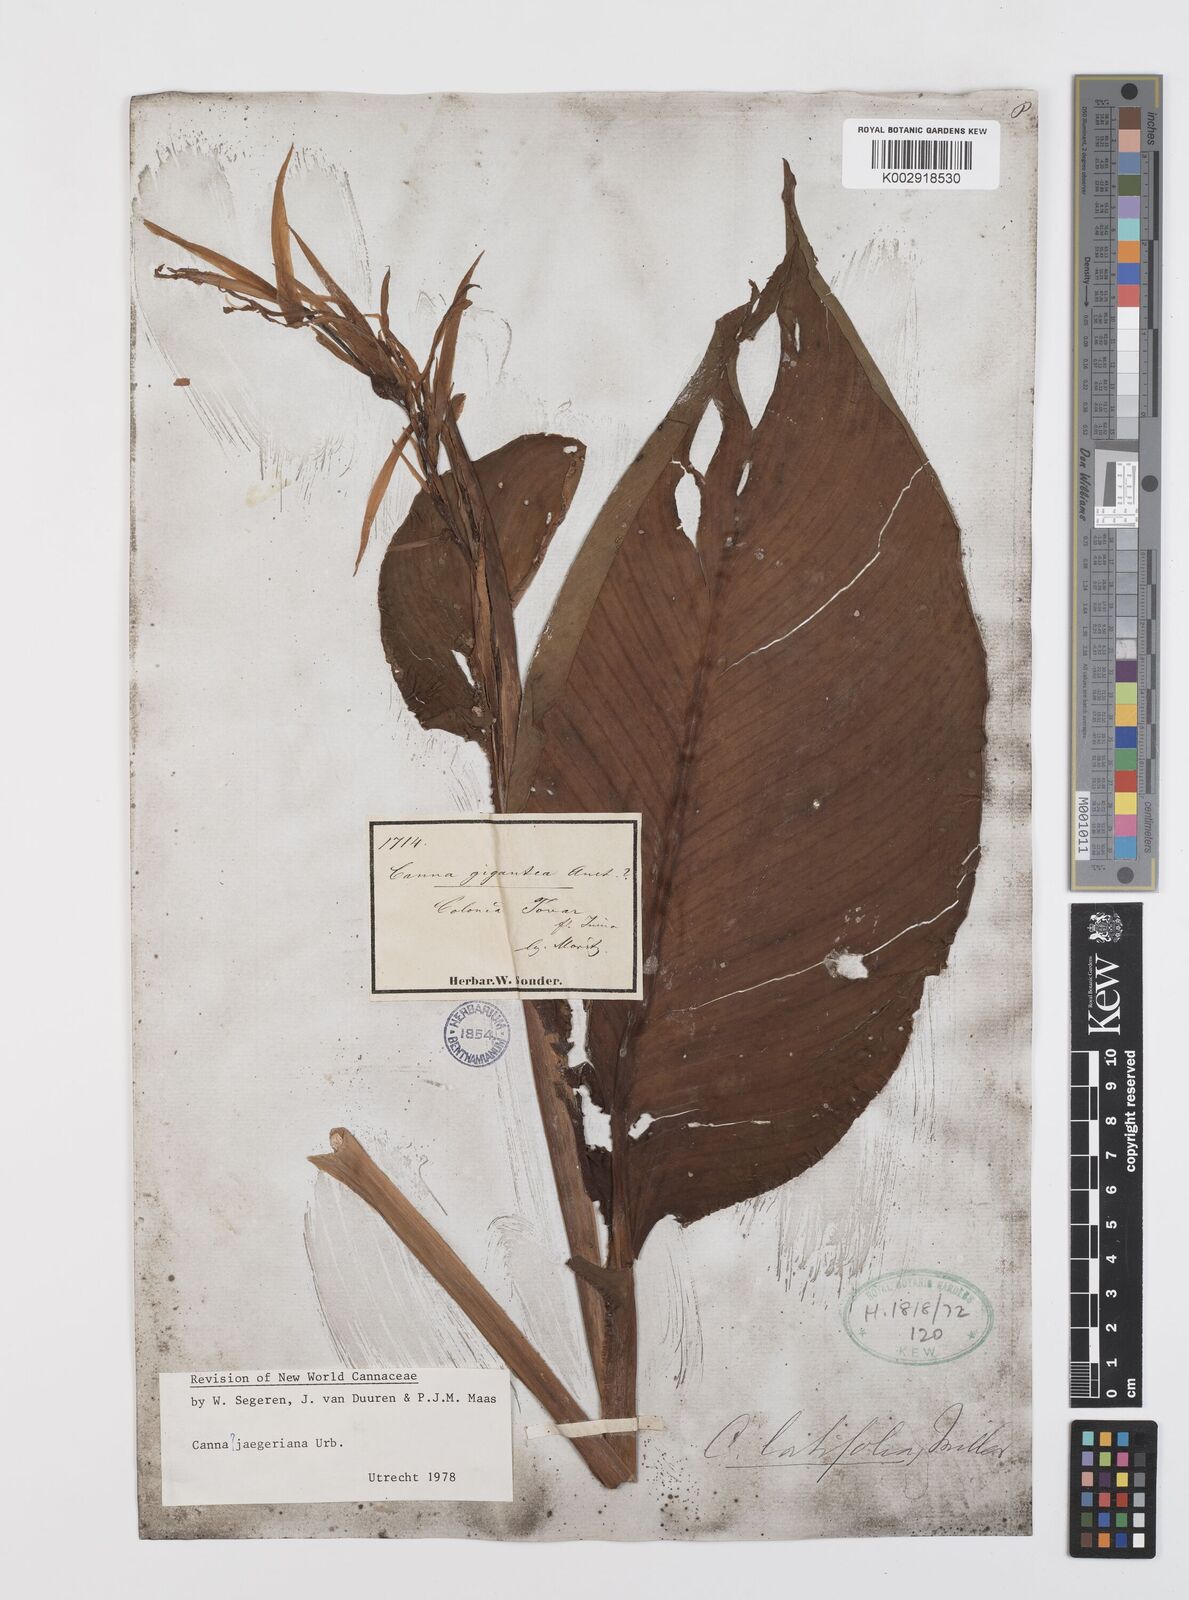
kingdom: Plantae
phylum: Tracheophyta
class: Liliopsida
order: Zingiberales
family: Cannaceae
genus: Canna
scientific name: Canna jaegeriana
